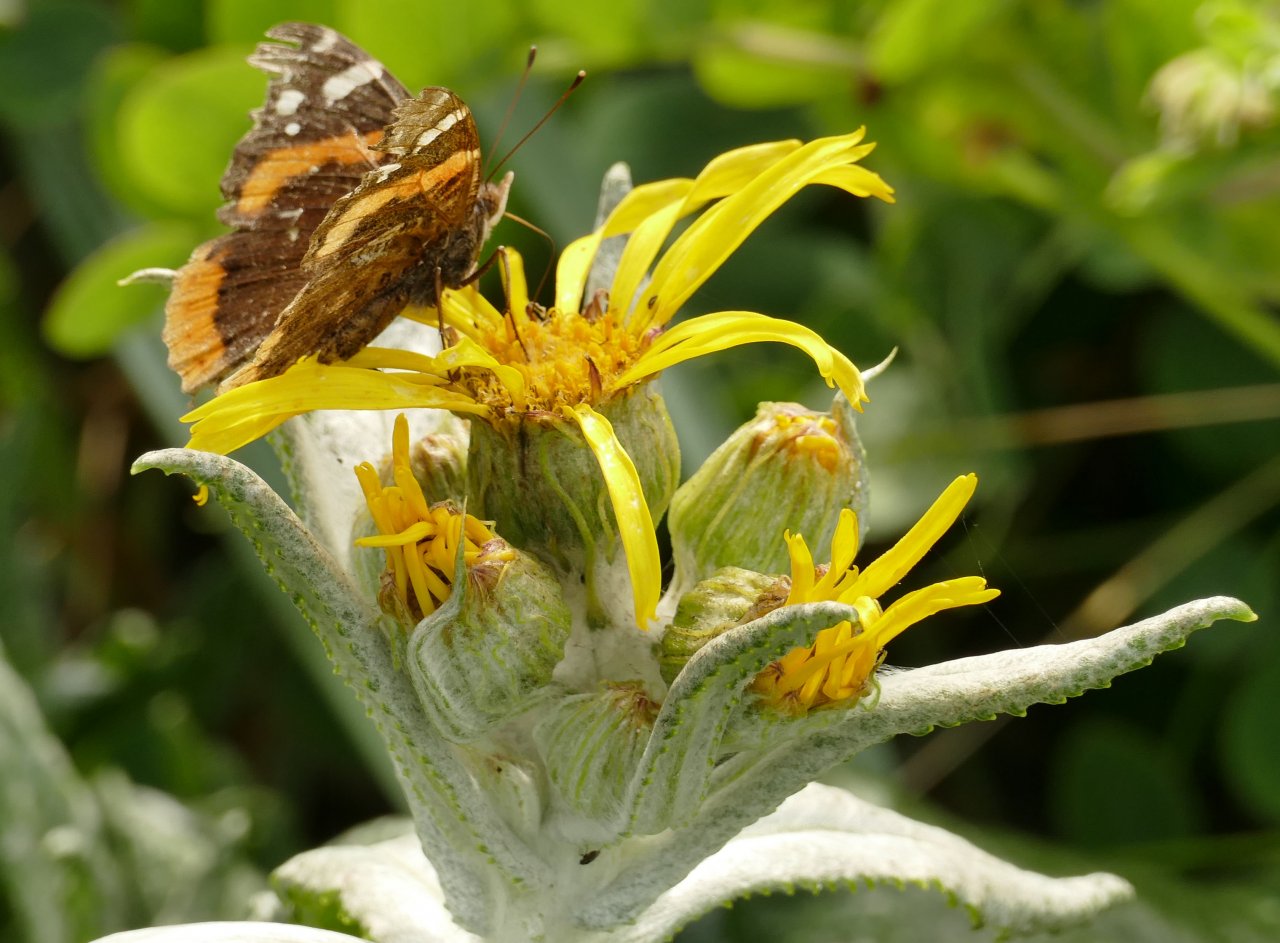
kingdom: Animalia
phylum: Arthropoda
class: Insecta
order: Lepidoptera
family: Nymphalidae
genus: Vanessa
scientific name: Vanessa atalanta
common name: Red Admiral
